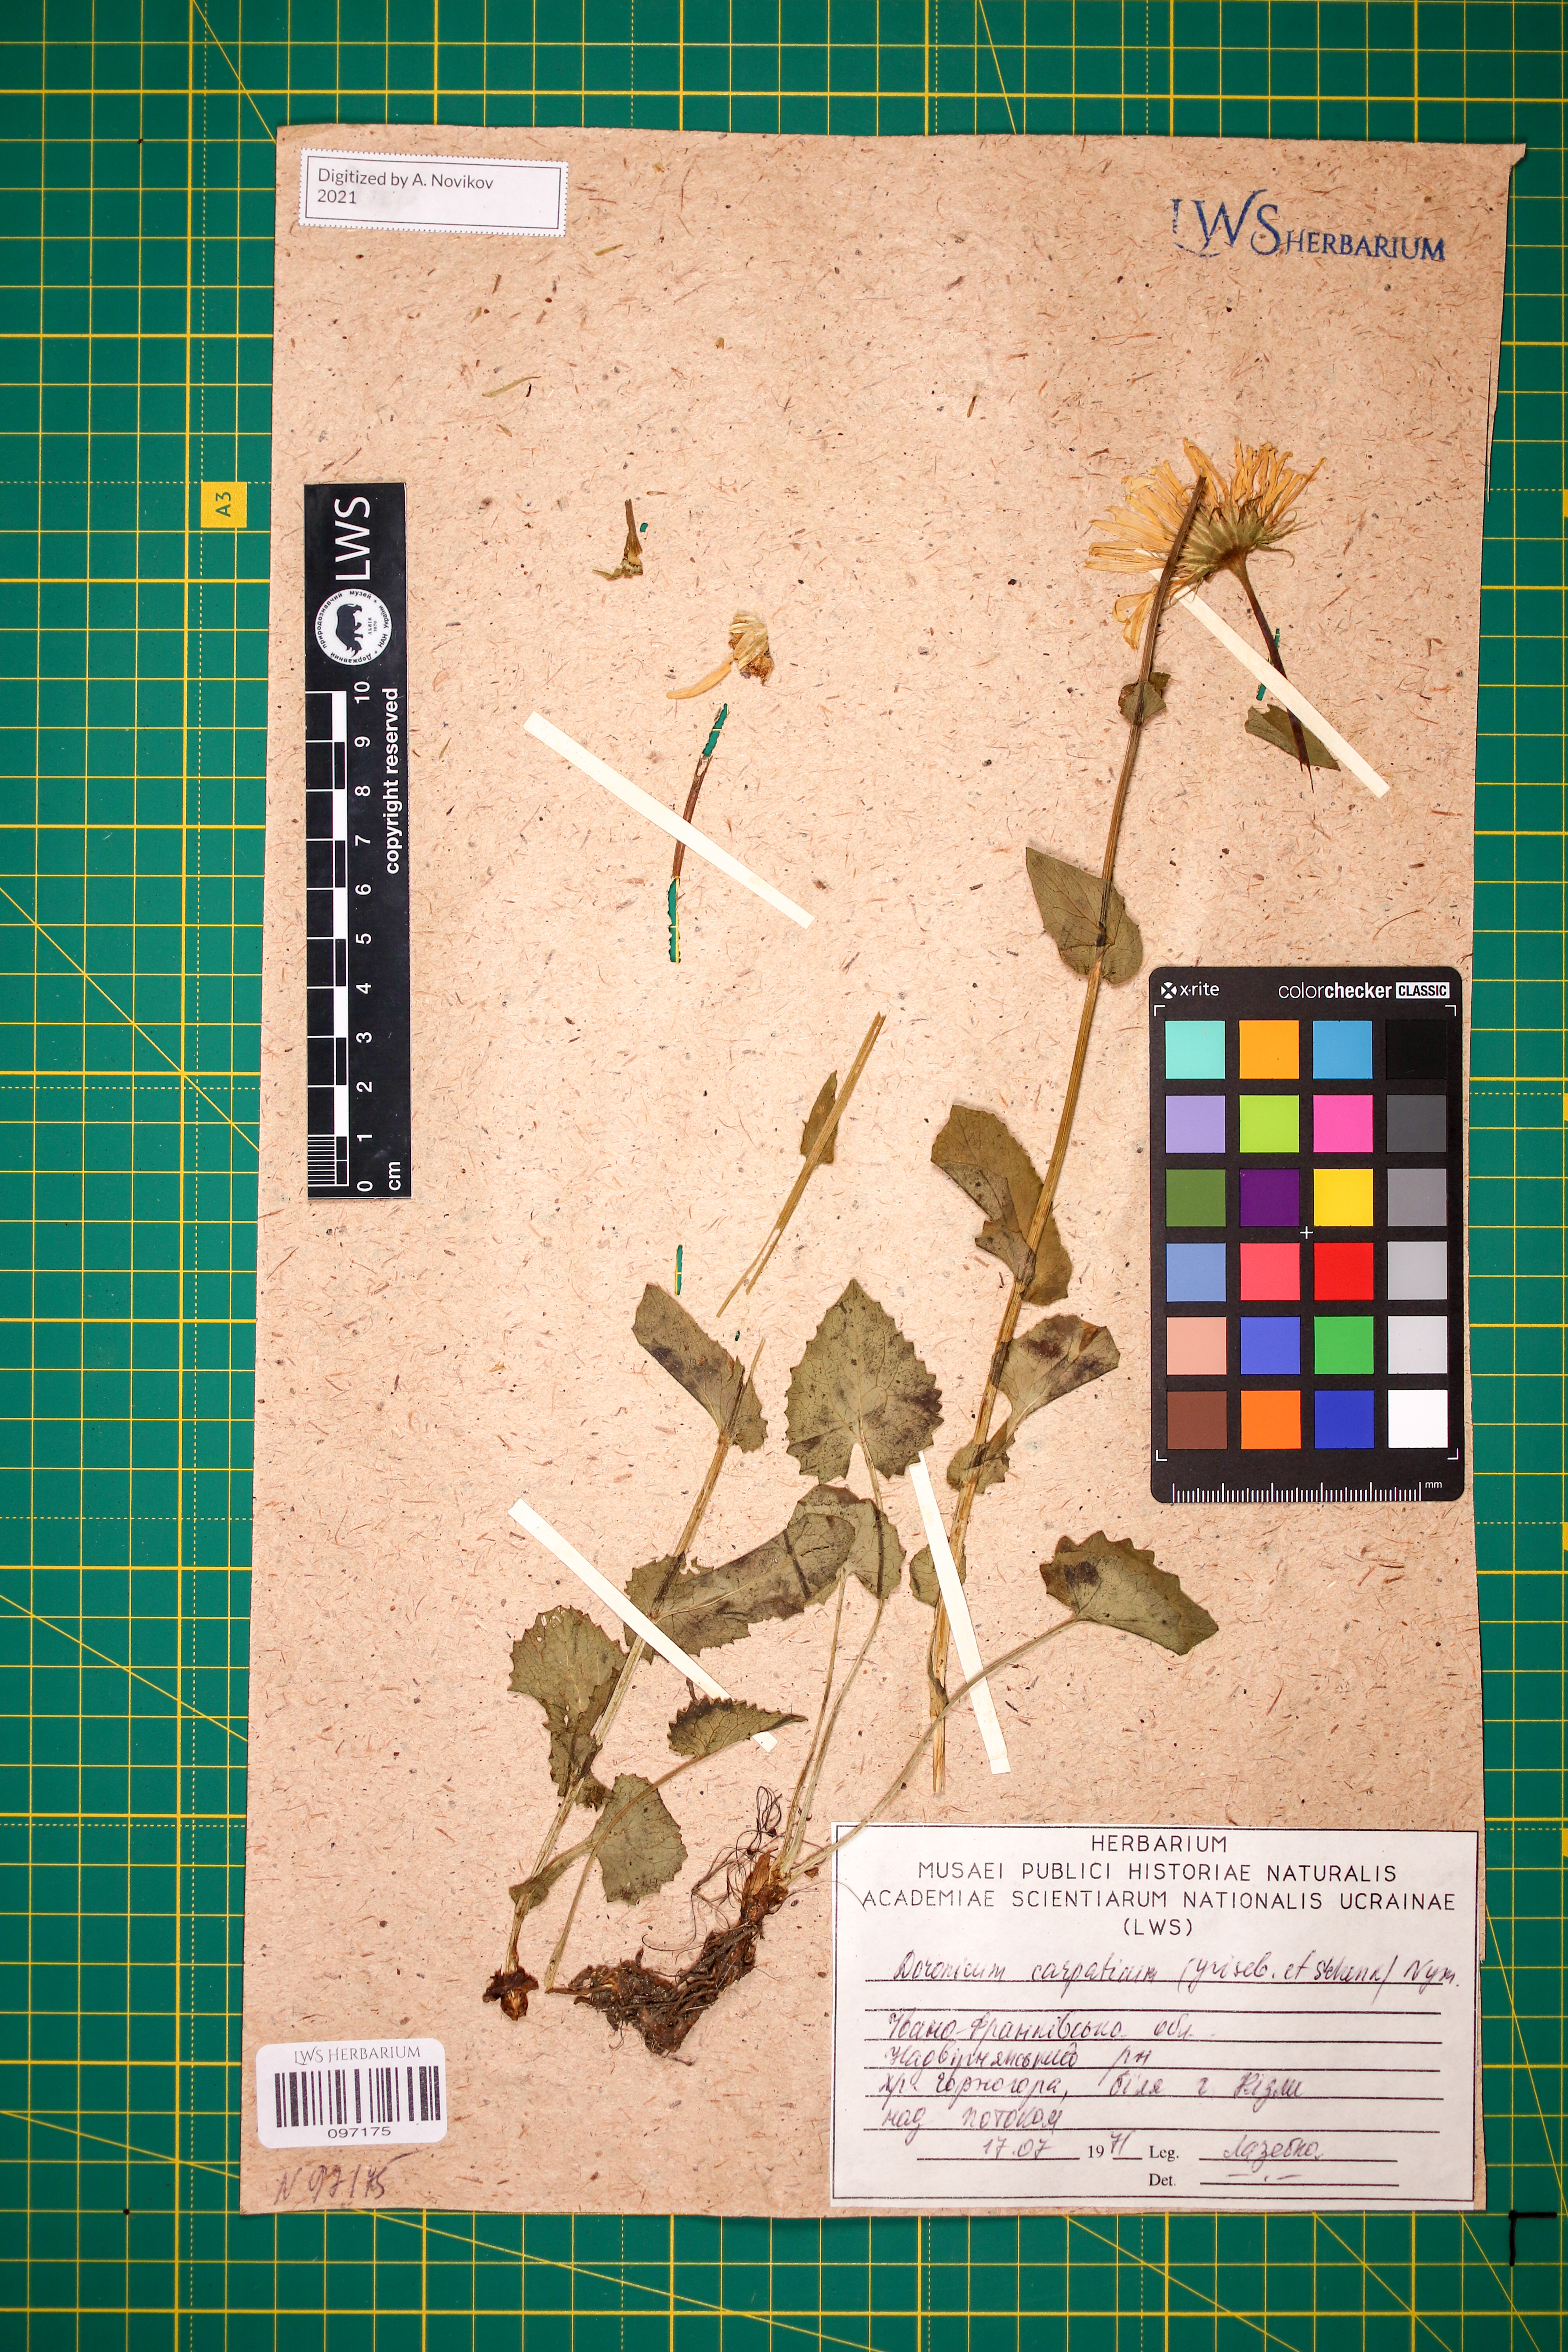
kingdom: Plantae
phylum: Tracheophyta
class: Magnoliopsida
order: Asterales
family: Asteraceae
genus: Doronicum
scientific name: Doronicum carpaticum
